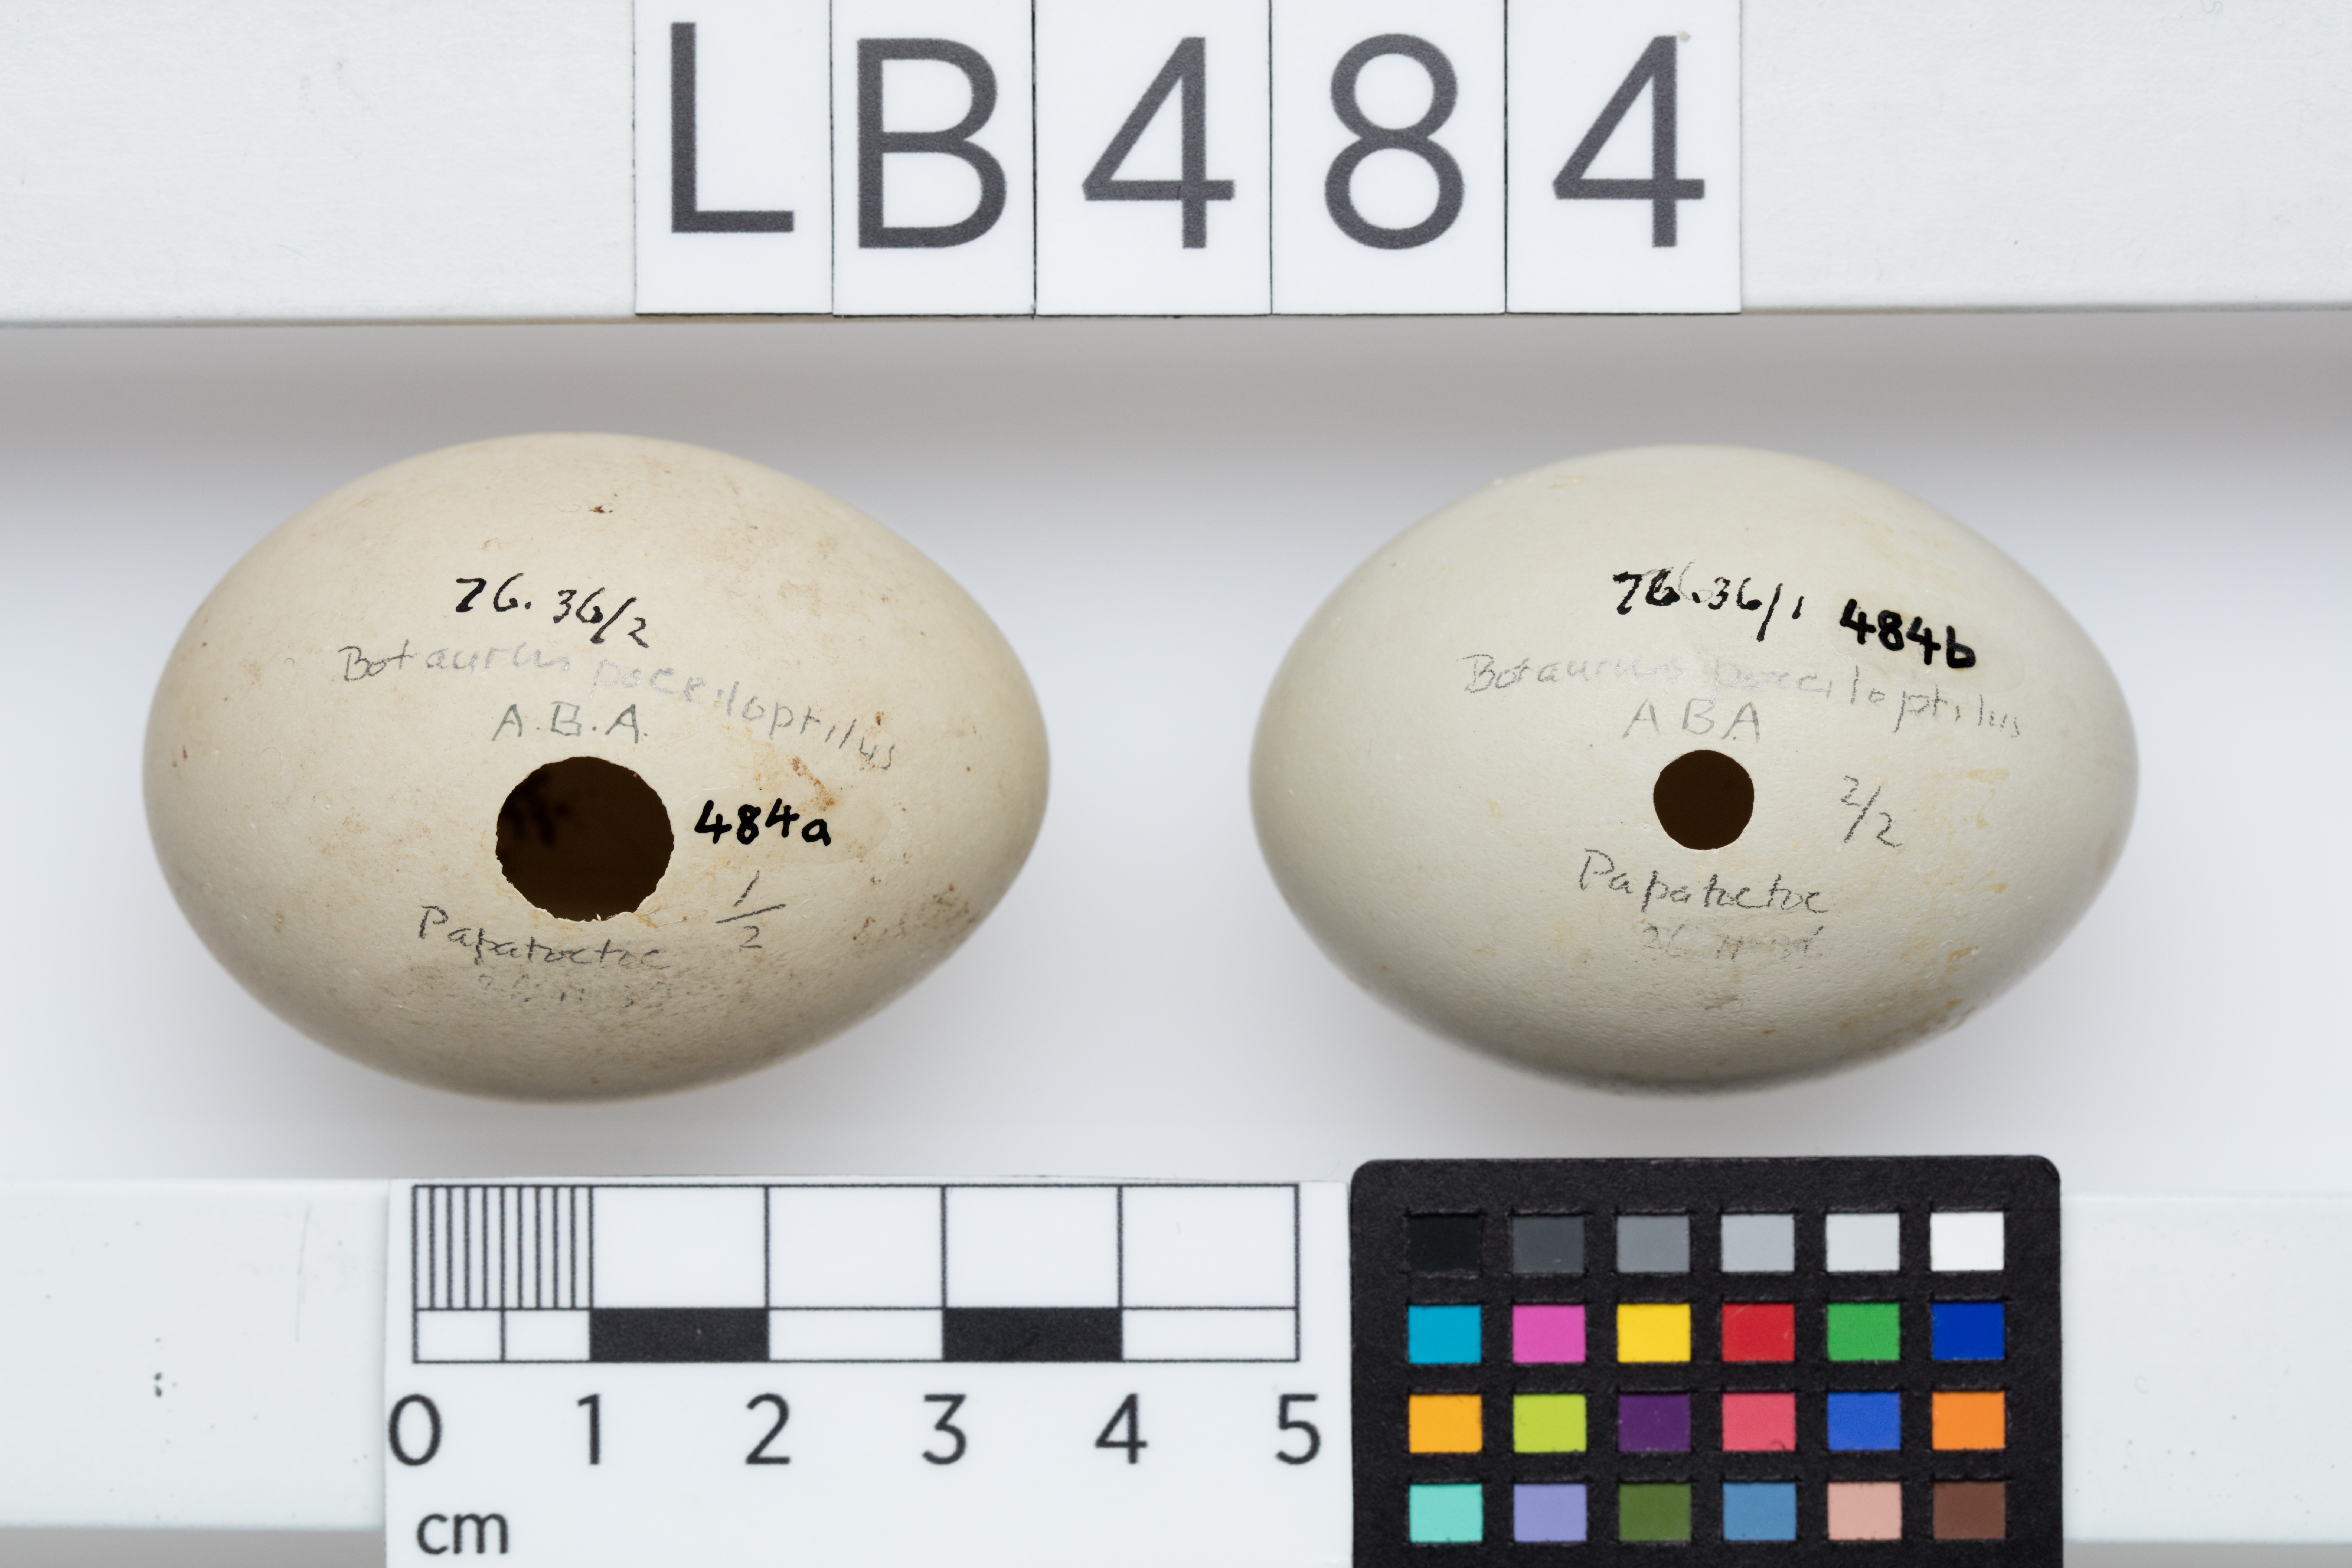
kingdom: Animalia
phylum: Chordata
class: Aves
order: Pelecaniformes
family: Ardeidae
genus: Botaurus
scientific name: Botaurus poiciloptilus
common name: Australasian bittern
